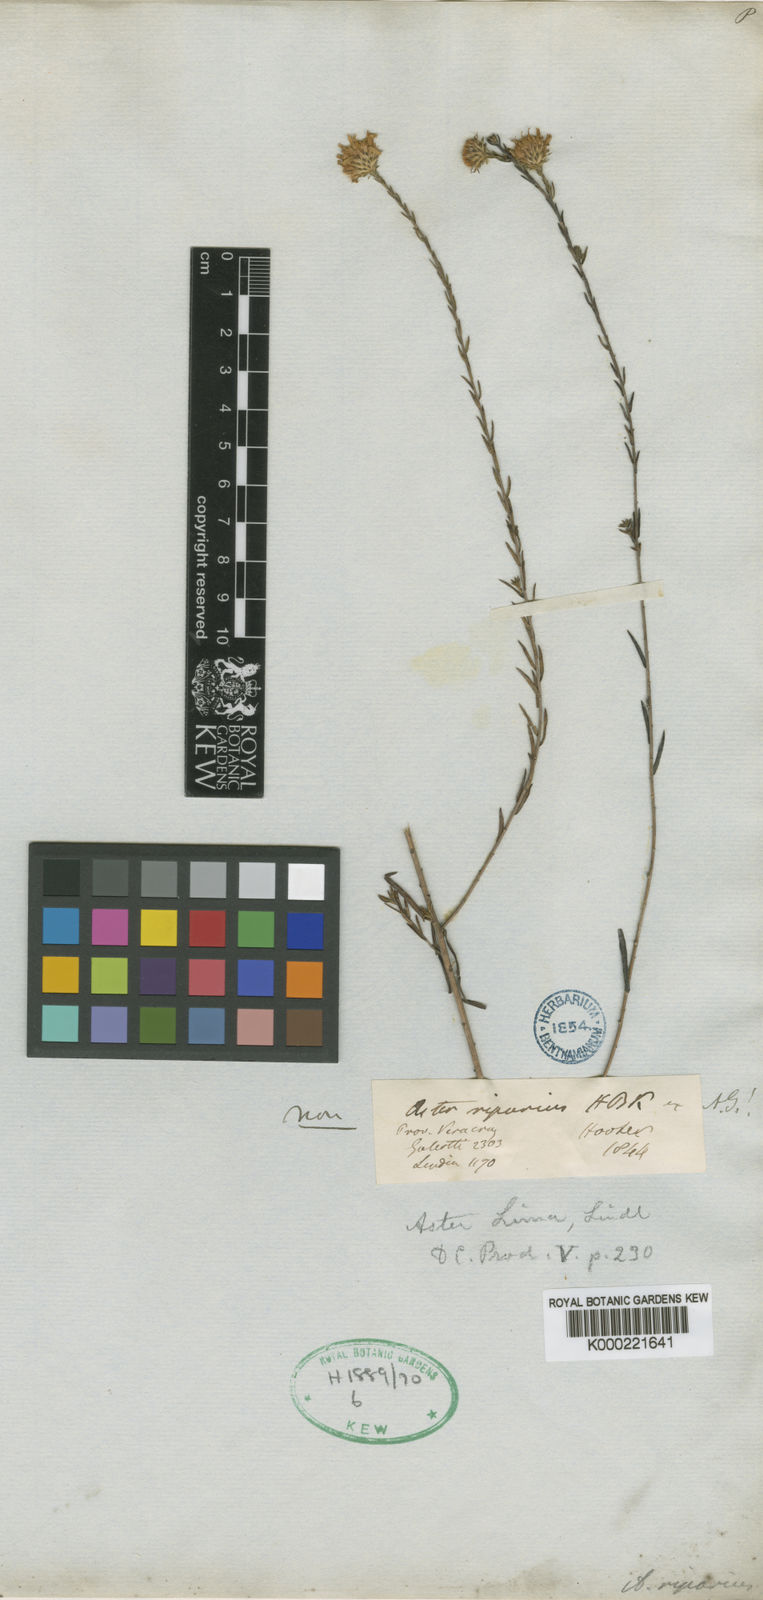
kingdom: Plantae
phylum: Tracheophyta
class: Magnoliopsida
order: Asterales
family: Asteraceae
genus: Symphyotrichum
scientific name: Symphyotrichum moranense
